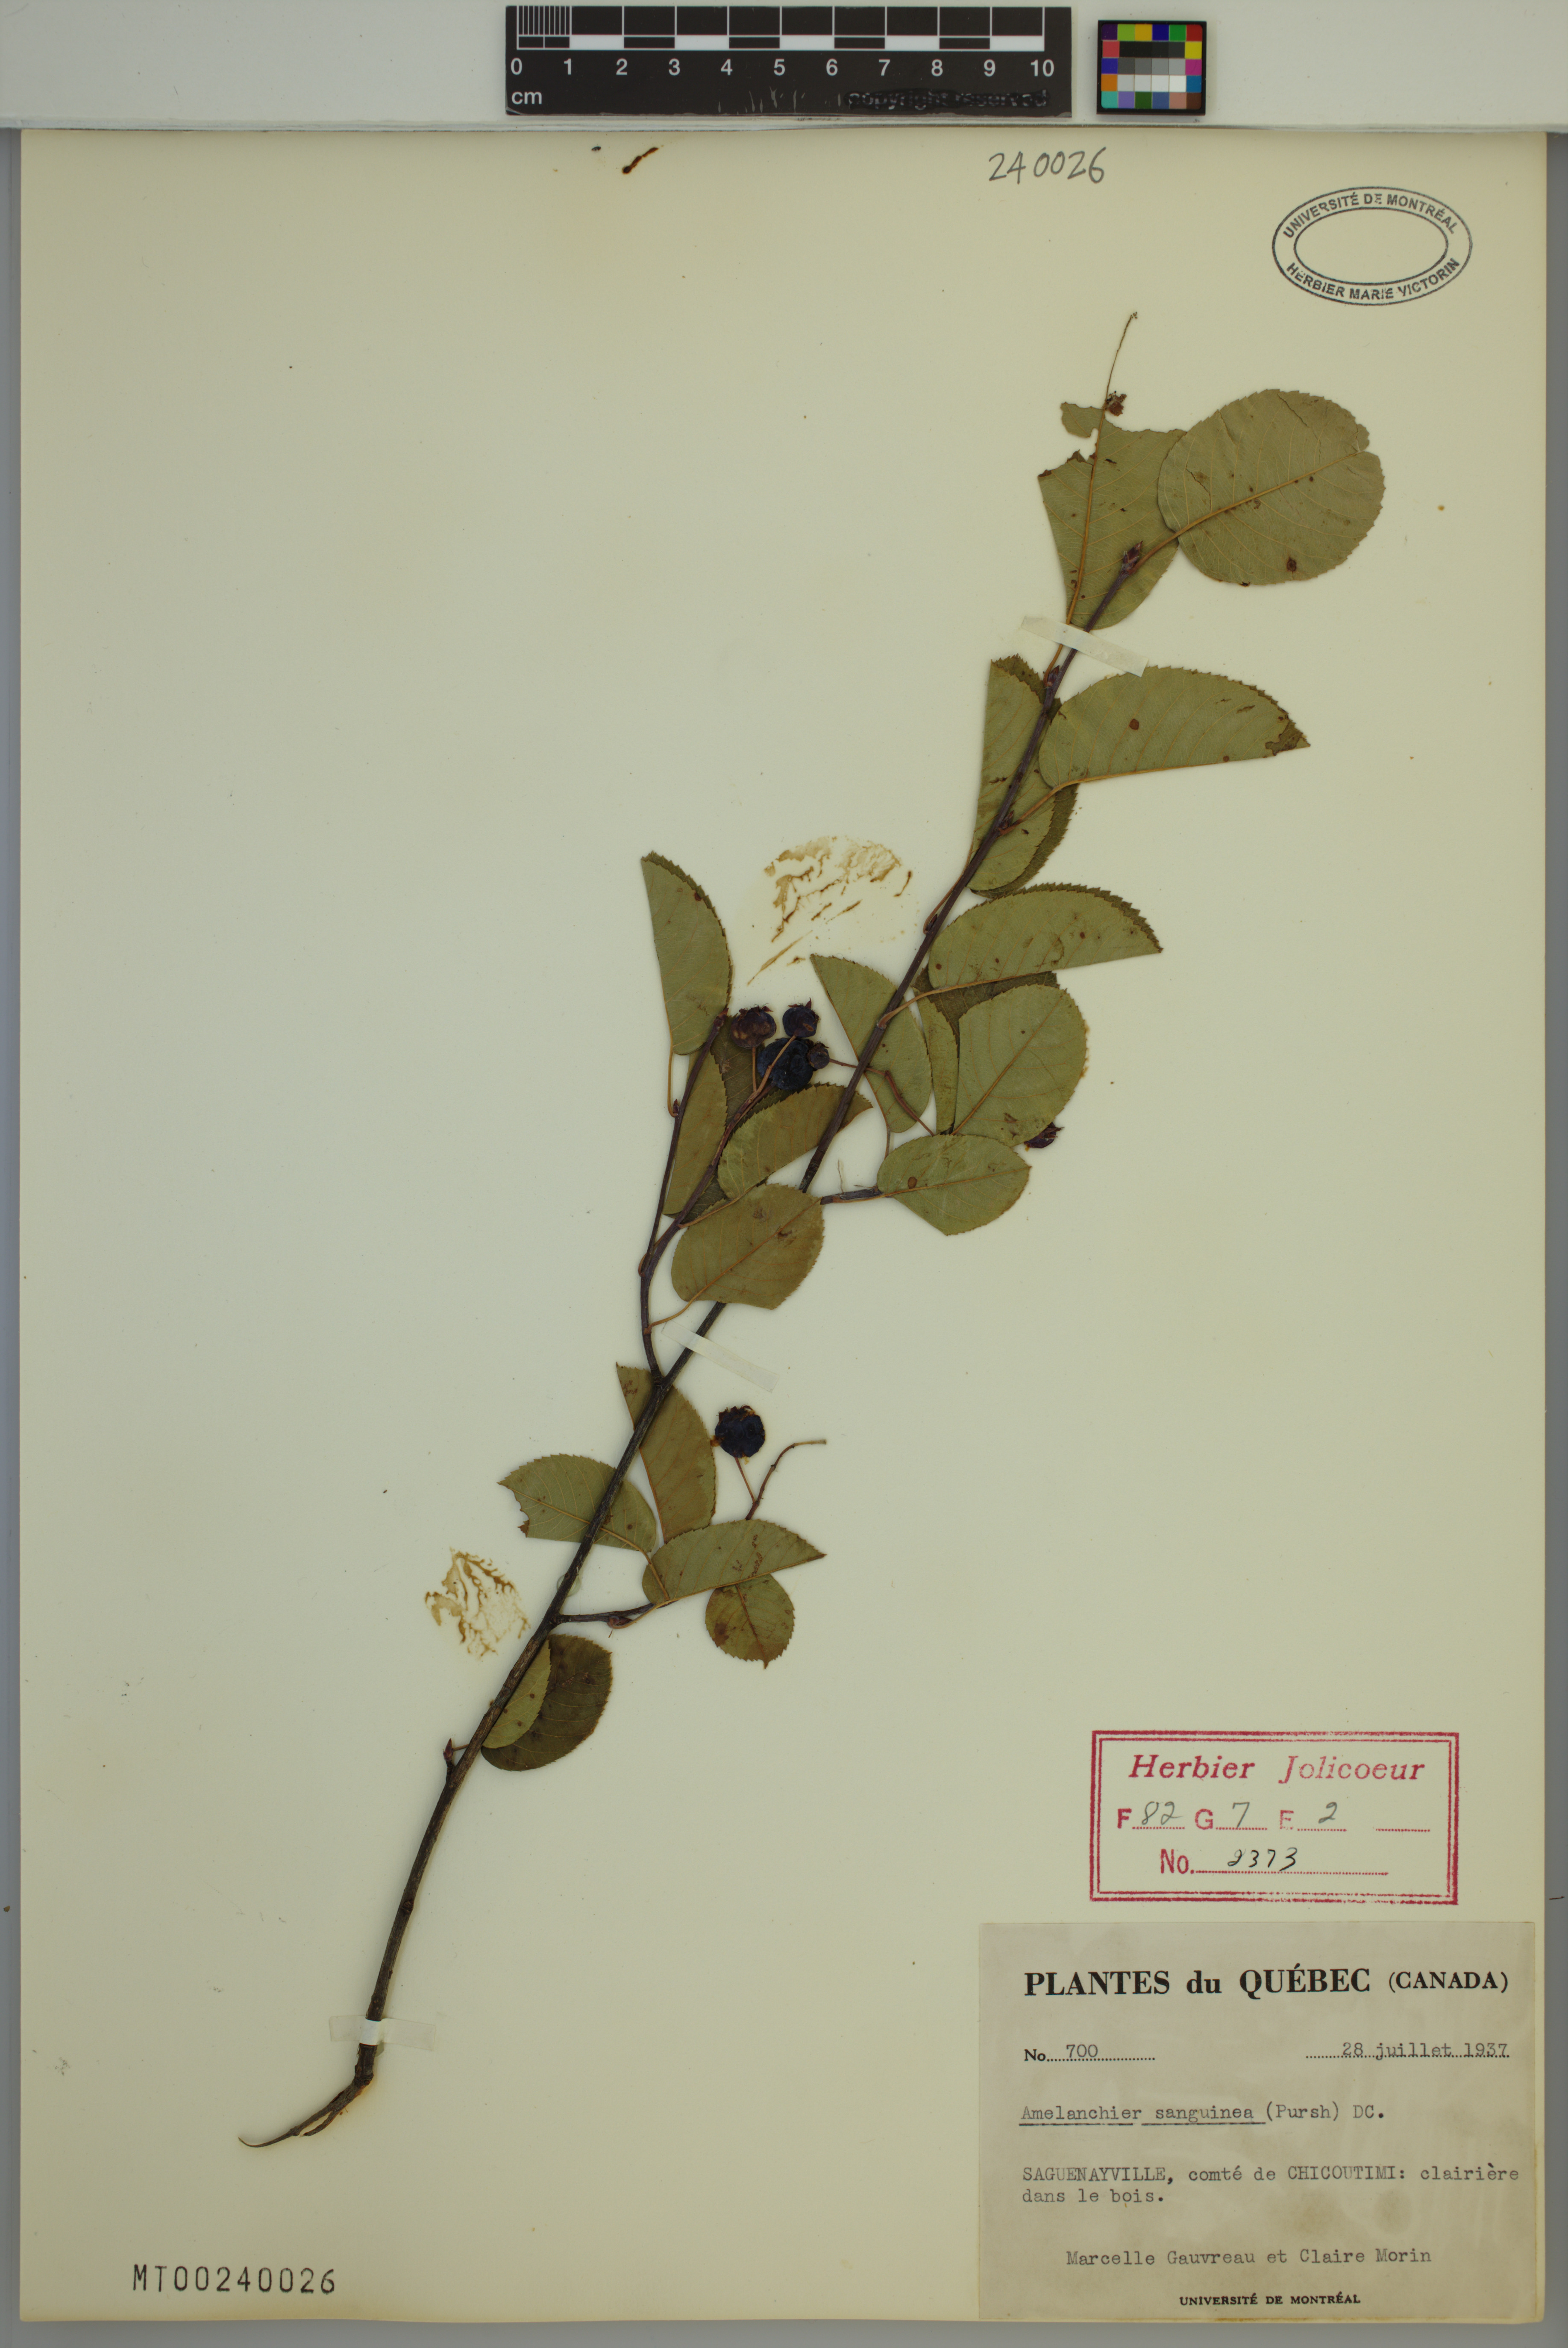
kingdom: Plantae
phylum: Tracheophyta
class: Magnoliopsida
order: Rosales
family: Rosaceae
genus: Amelanchier
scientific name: Amelanchier sanguinea
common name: Huron serviceberry
